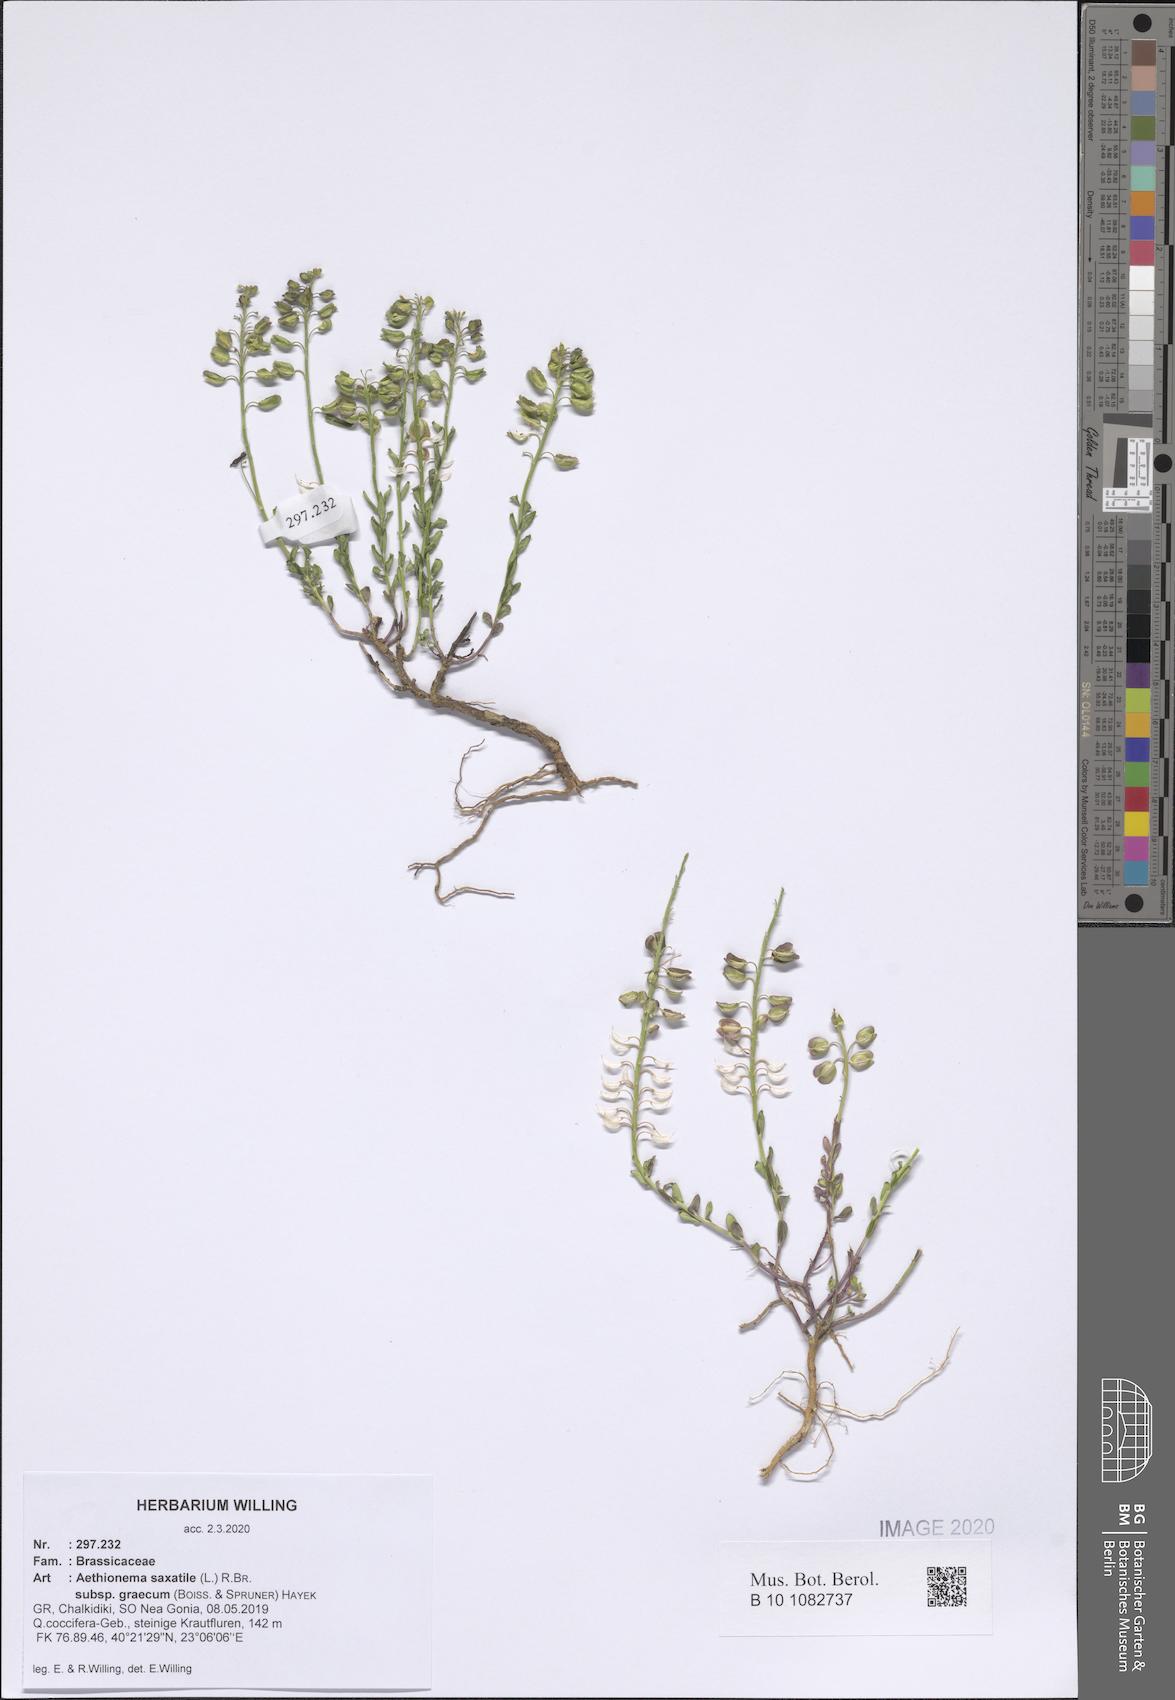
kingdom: Plantae
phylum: Tracheophyta
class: Magnoliopsida
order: Brassicales
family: Brassicaceae
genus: Aethionema
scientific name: Aethionema saxatile
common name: Burnt candytuft
